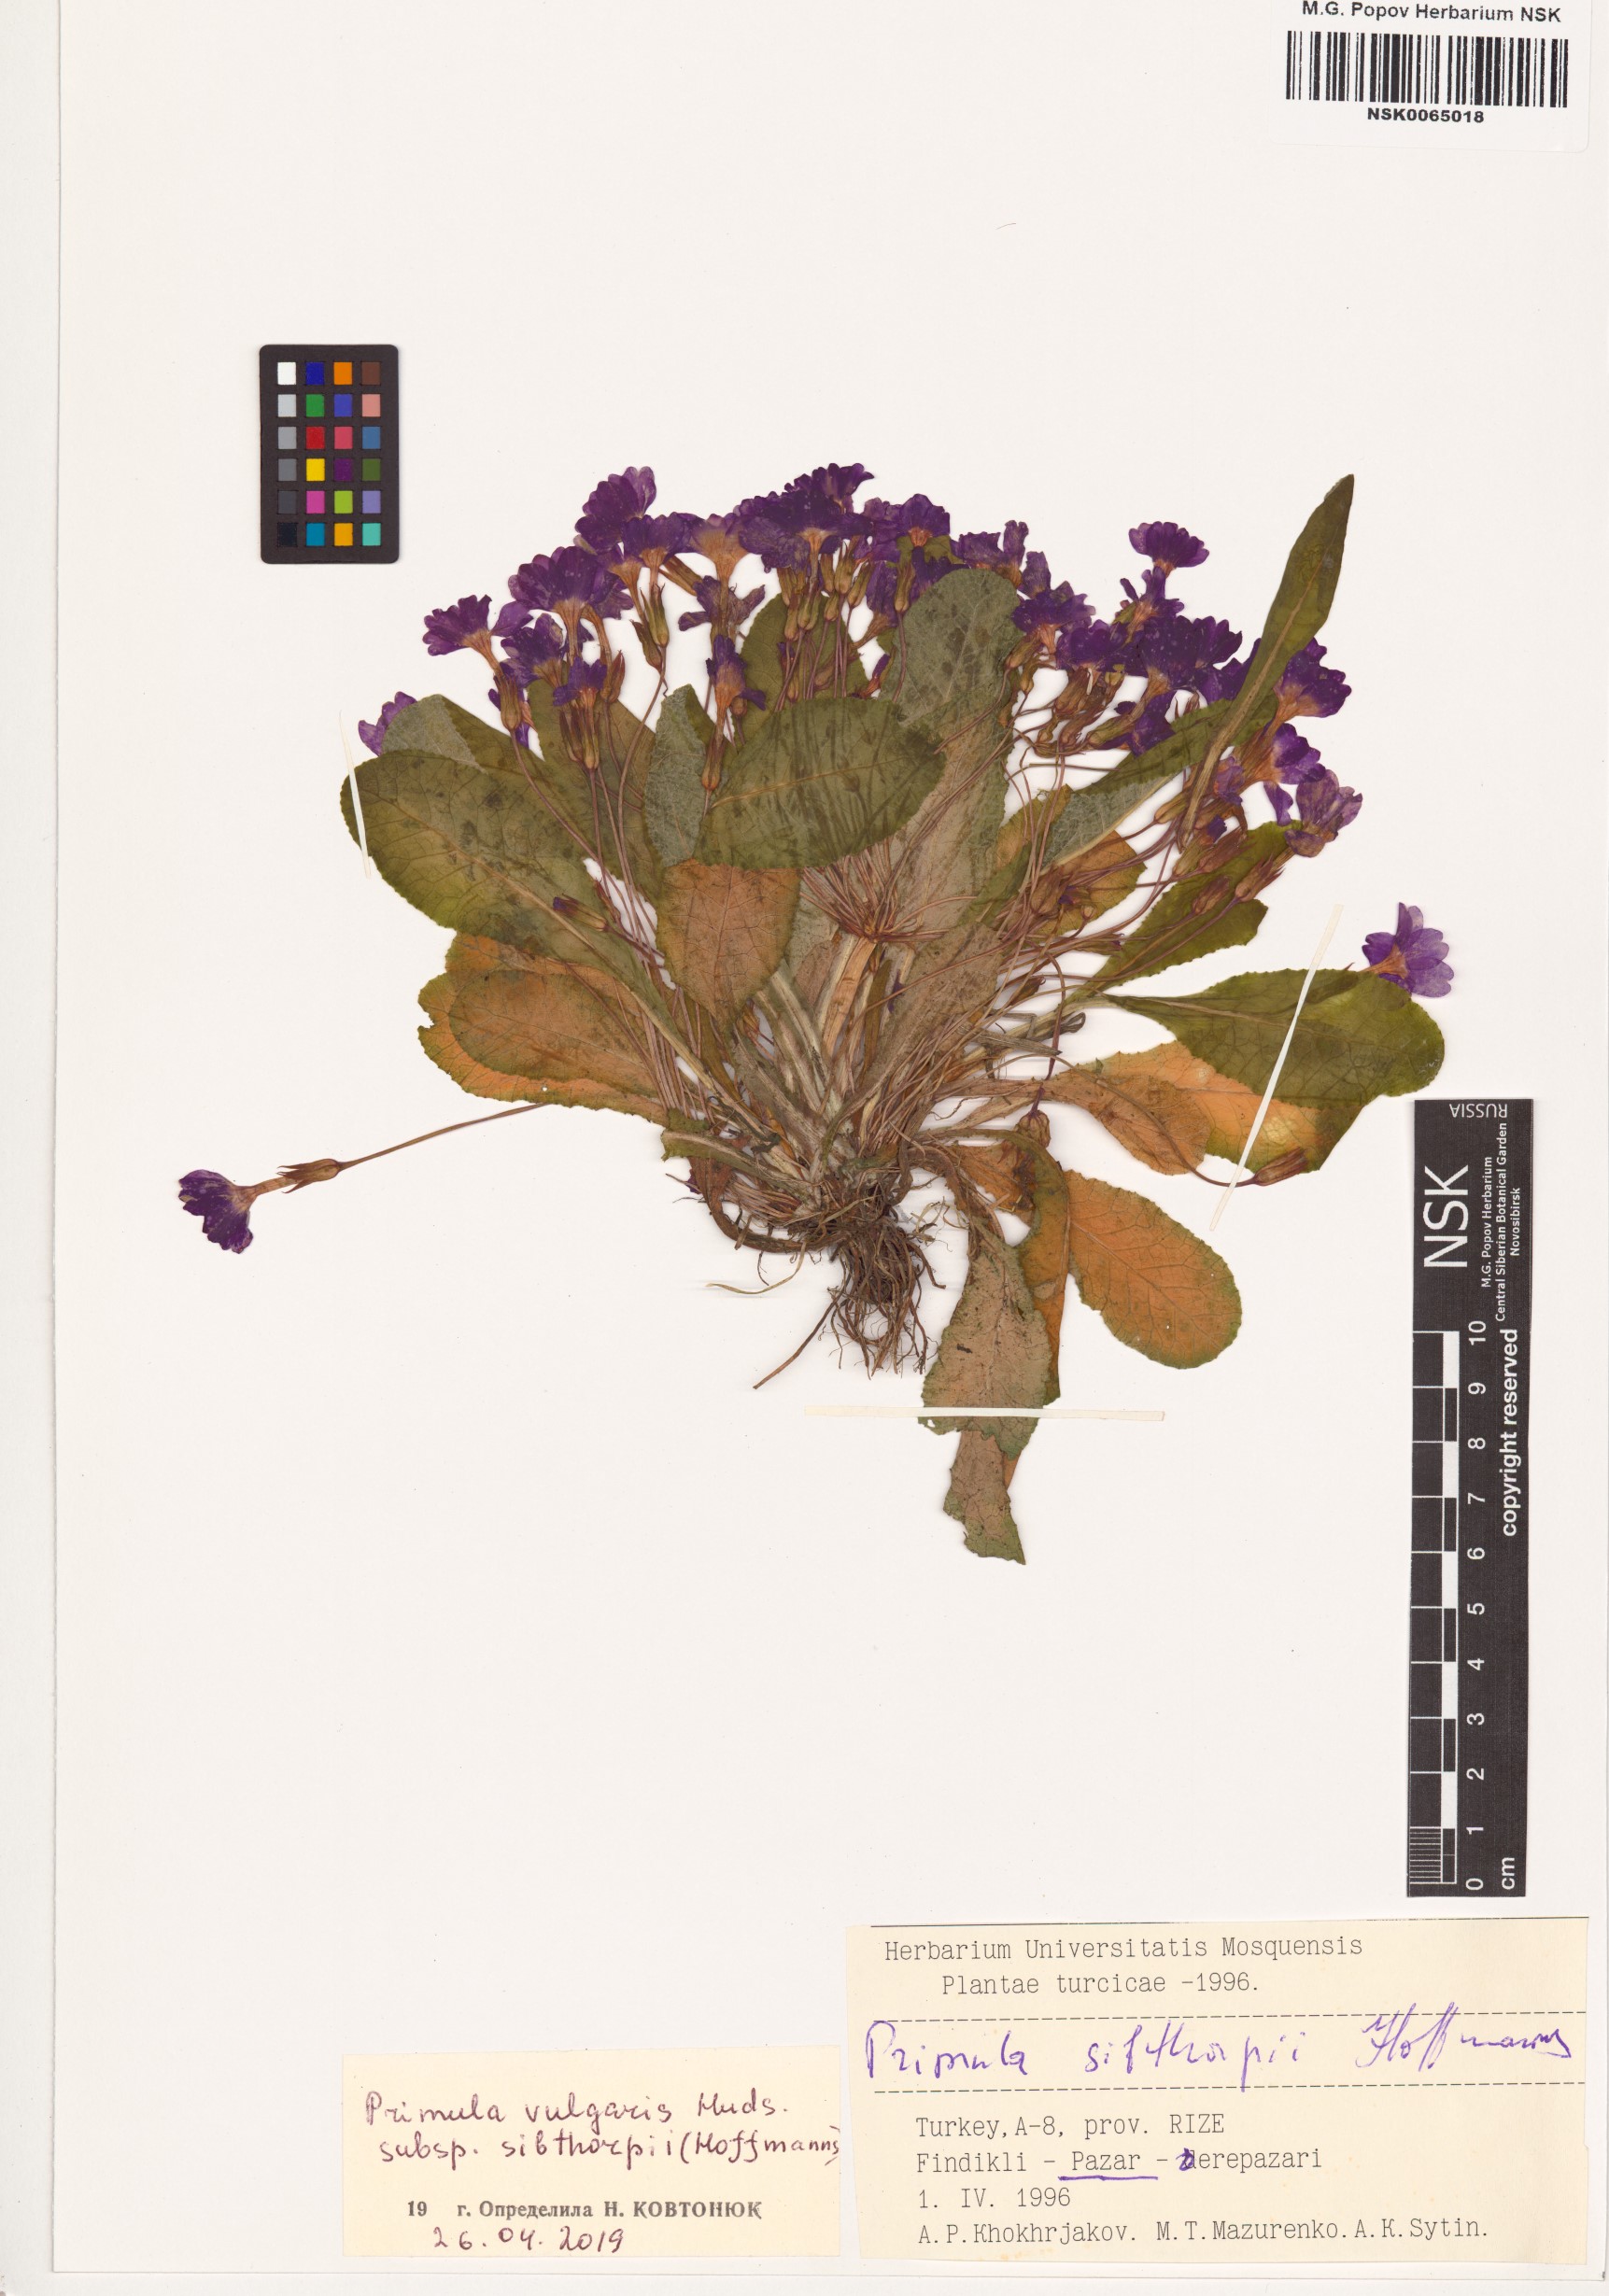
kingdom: Plantae
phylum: Tracheophyta
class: Magnoliopsida
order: Ericales
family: Primulaceae
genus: Primula
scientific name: Primula vulgaris
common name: Primrose
